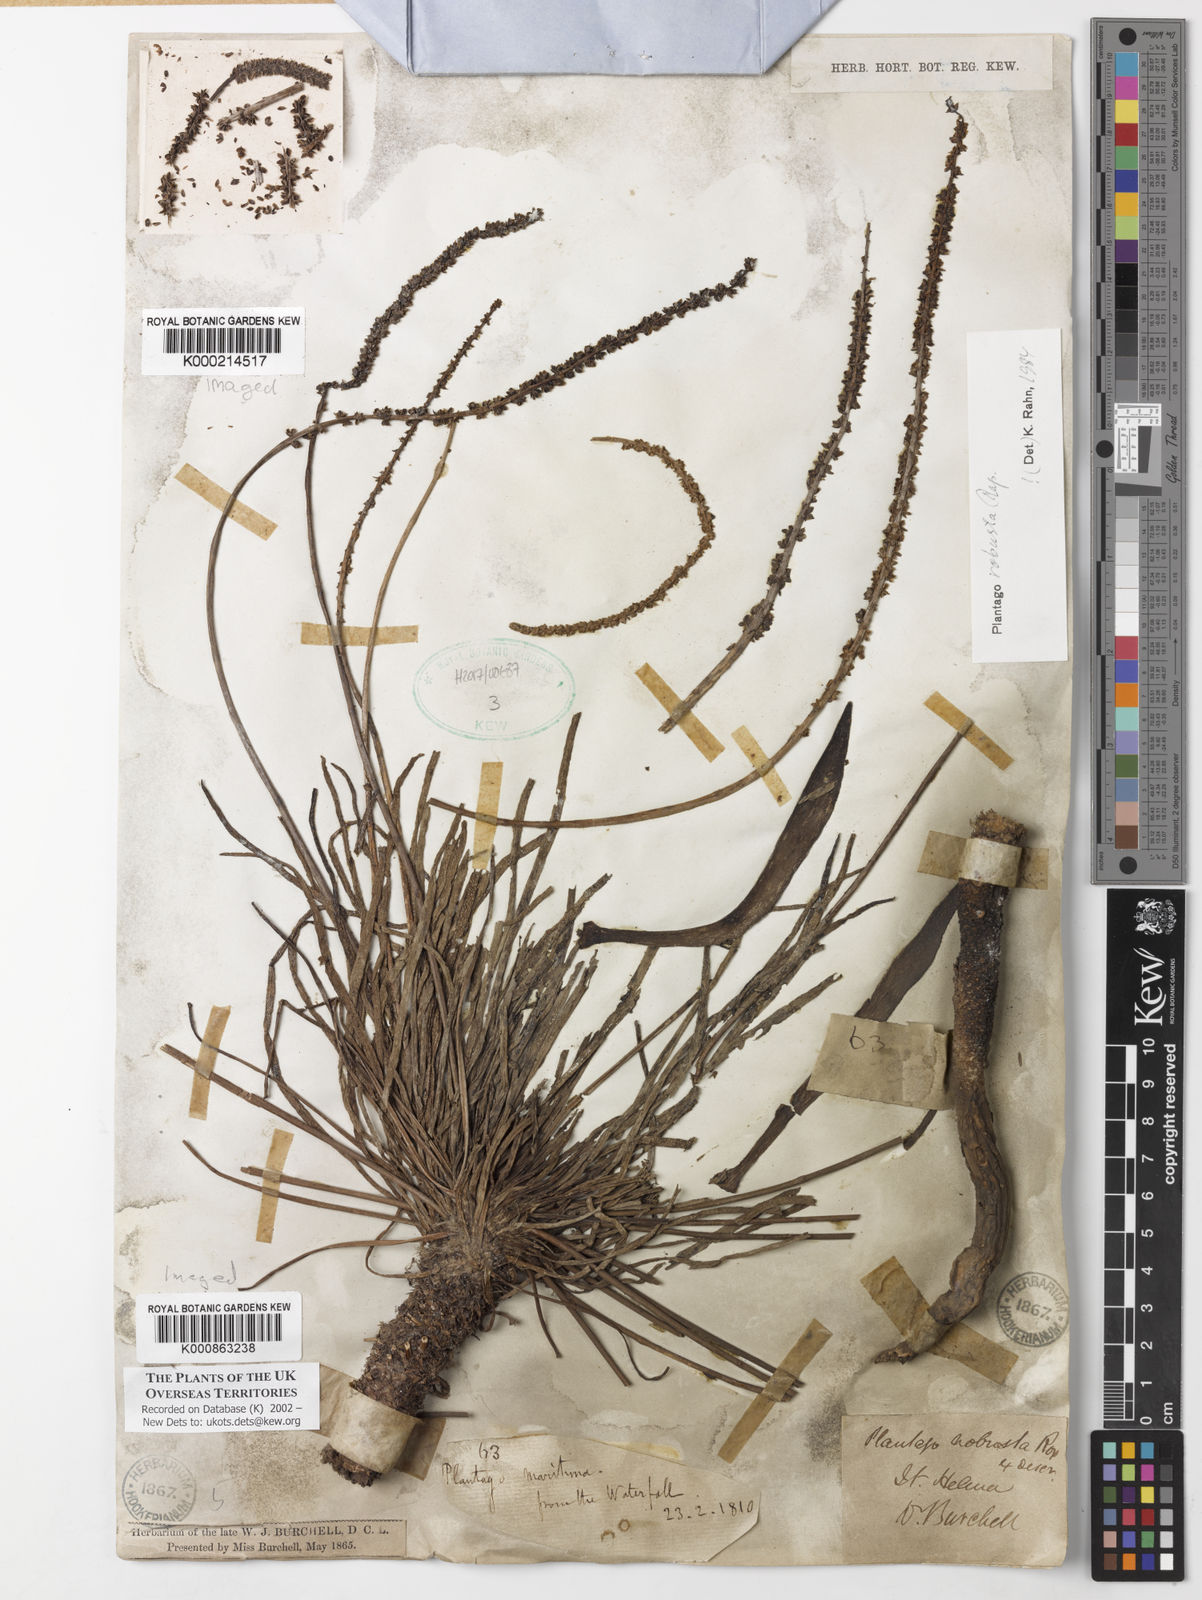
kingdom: Plantae
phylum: Tracheophyta
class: Magnoliopsida
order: Lamiales
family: Plantaginaceae
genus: Plantago
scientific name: Plantago robusta
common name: St helena plantain
